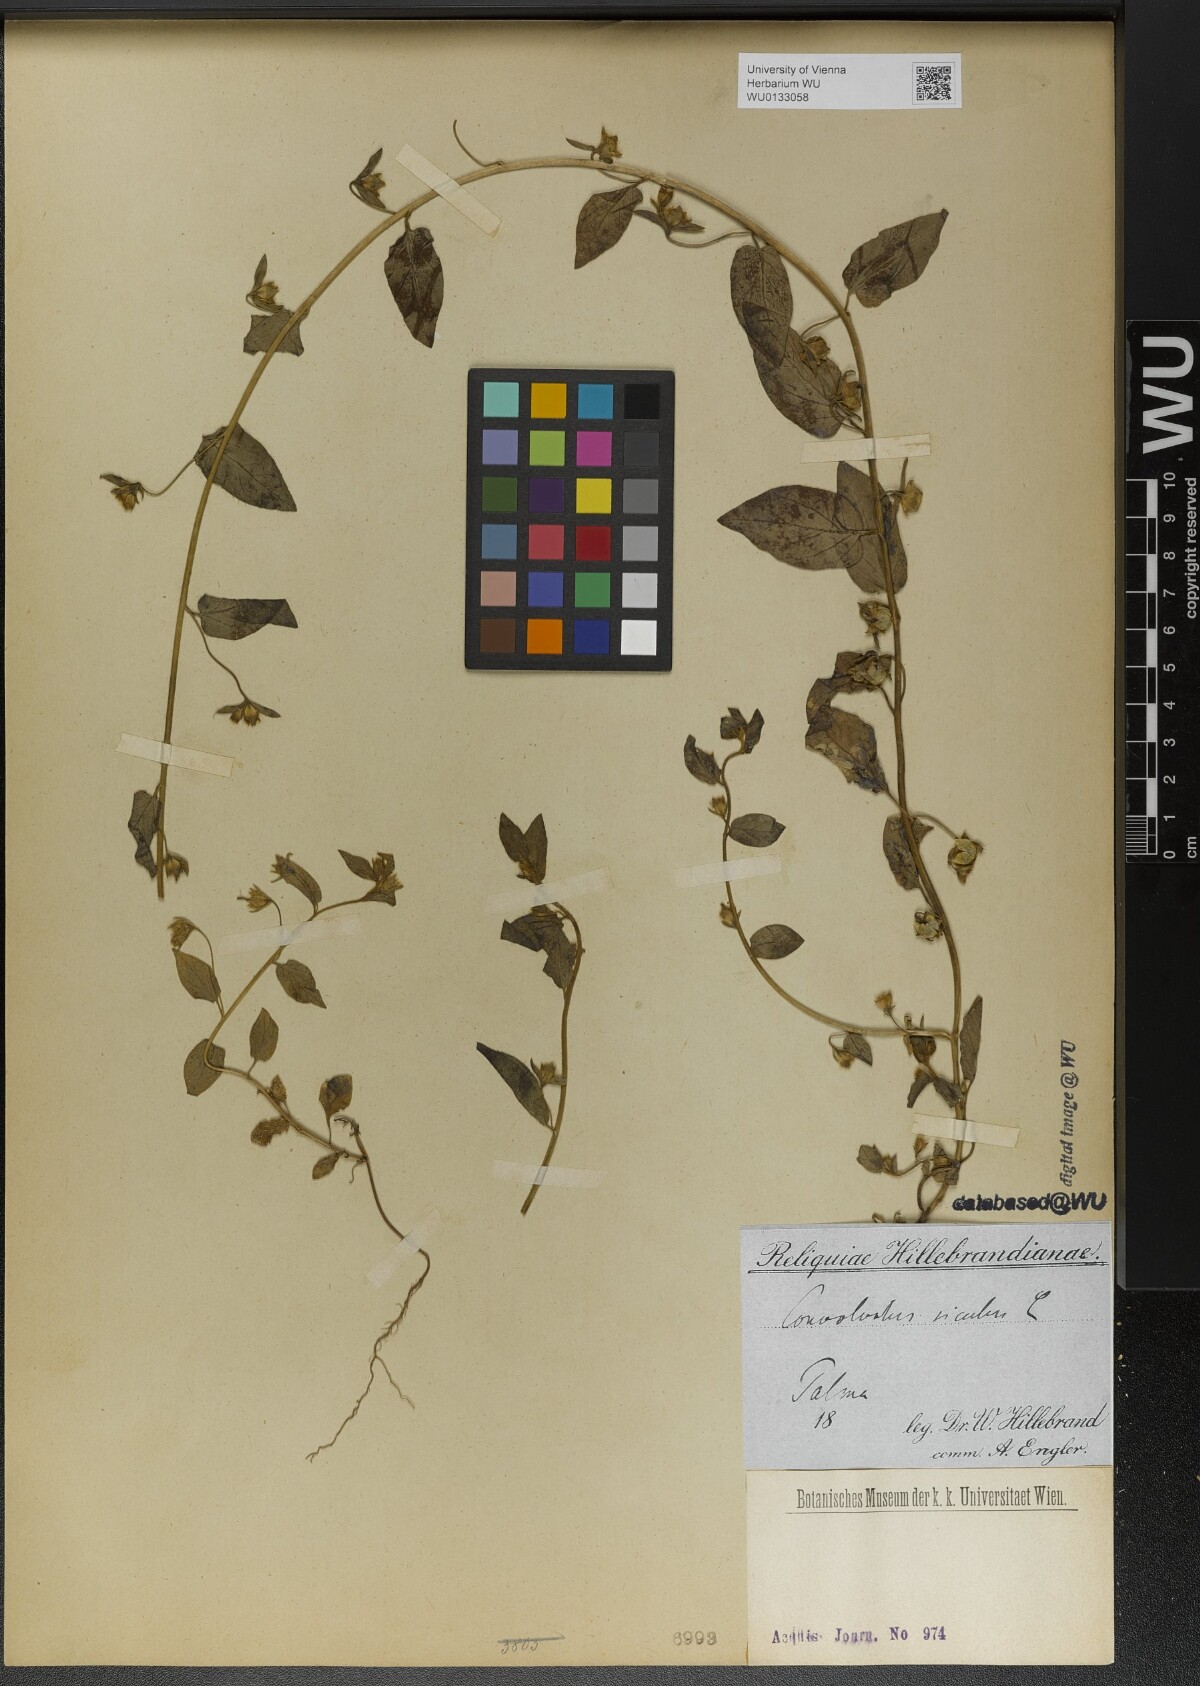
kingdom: Plantae
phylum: Tracheophyta
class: Magnoliopsida
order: Solanales
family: Convolvulaceae
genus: Convolvulus
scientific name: Convolvulus siculus
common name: Small blue-convolvulus
